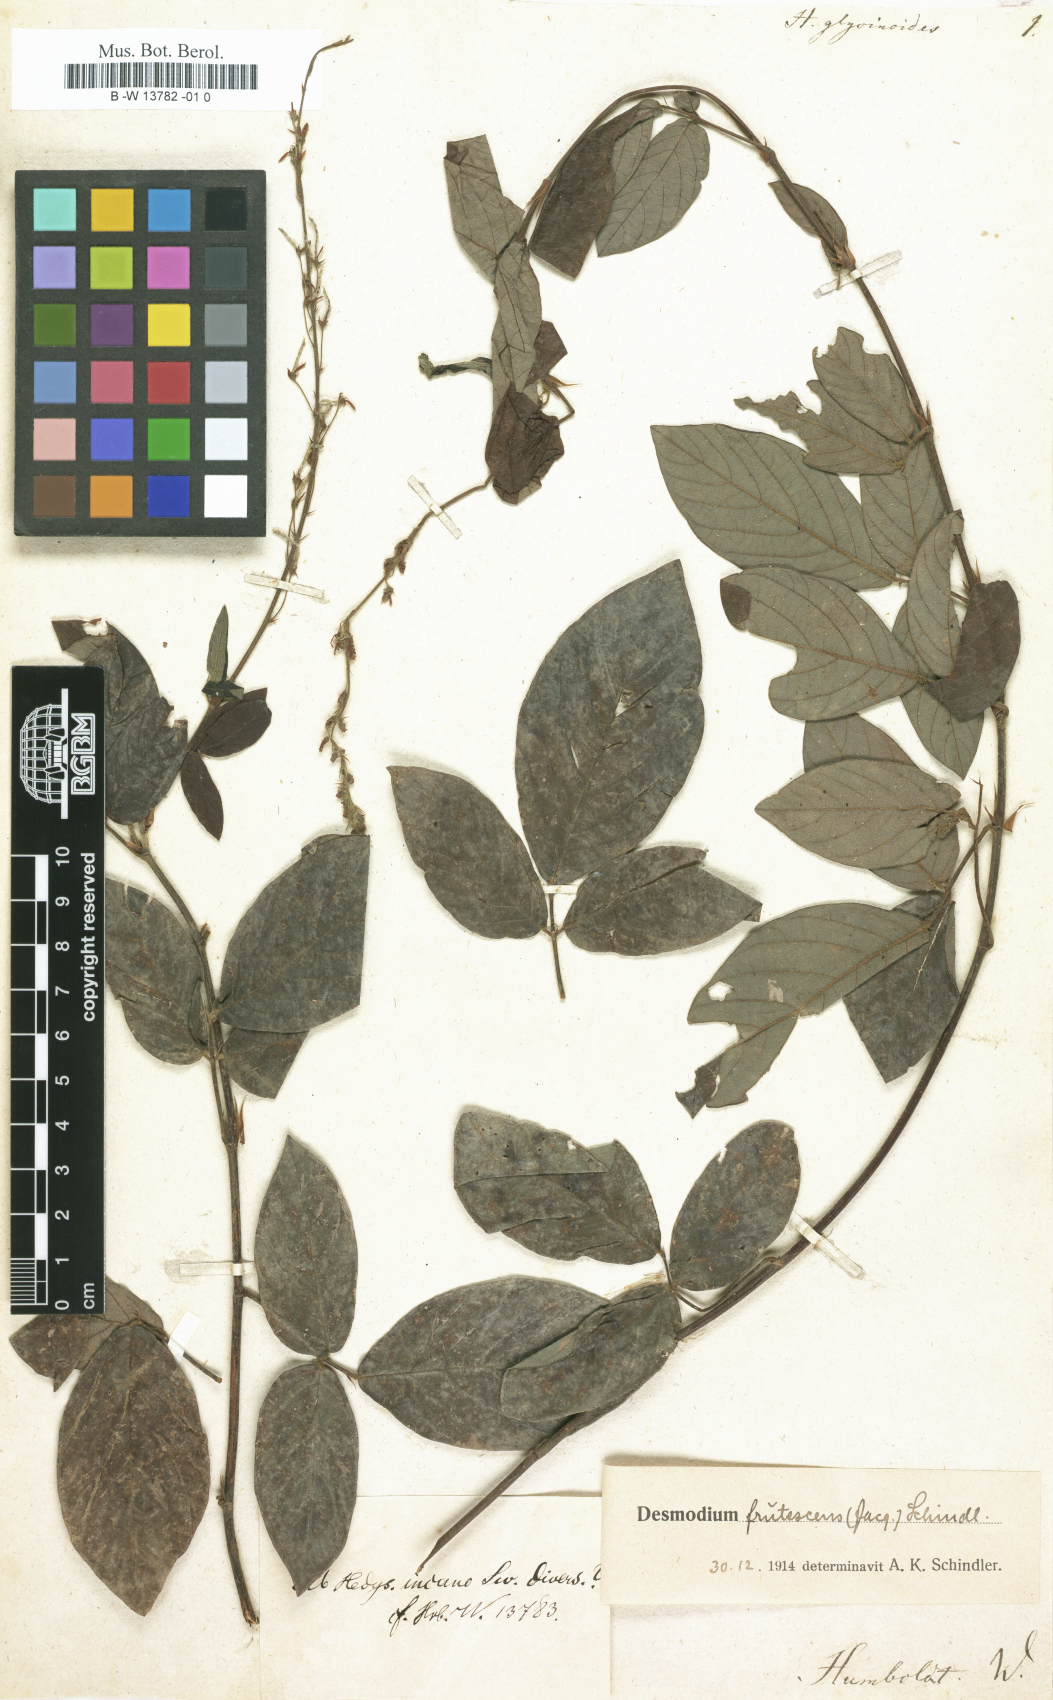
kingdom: Plantae
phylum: Tracheophyta
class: Magnoliopsida
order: Fabales
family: Fabaceae
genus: Hedysarum
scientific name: Hedysarum
